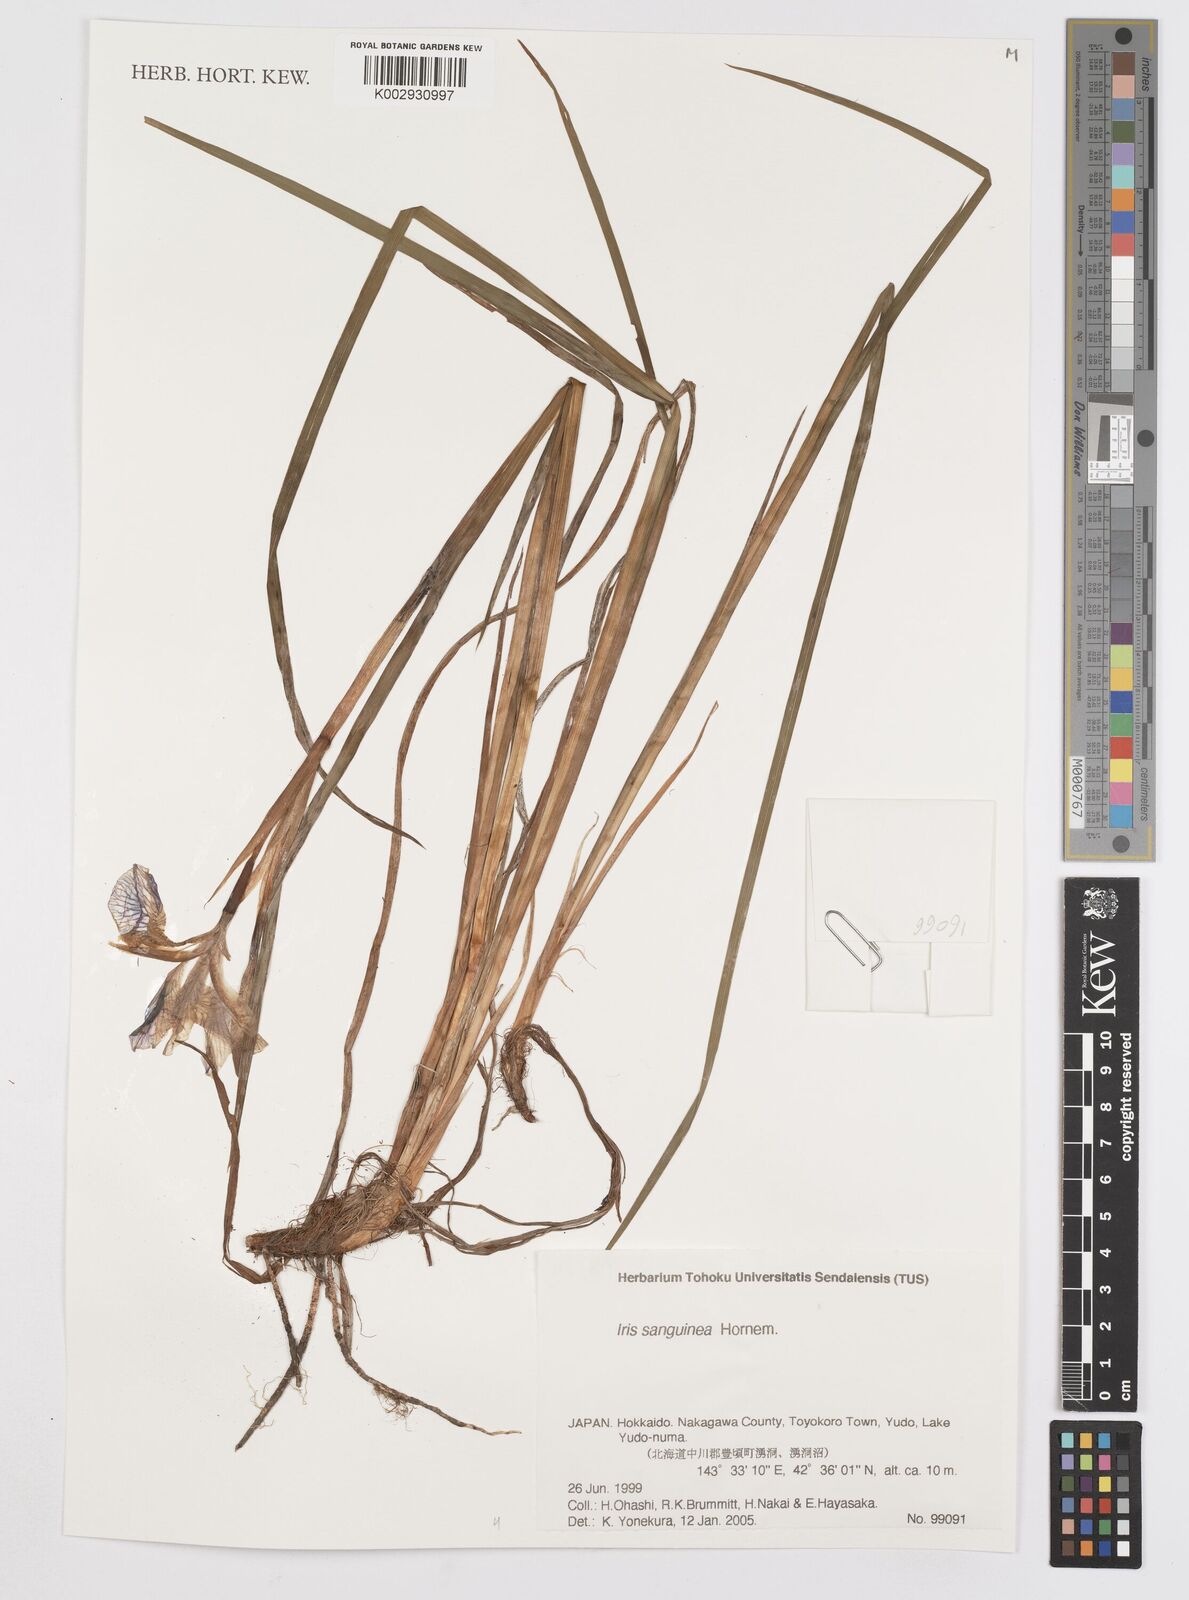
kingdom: Plantae
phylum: Tracheophyta
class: Liliopsida
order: Asparagales
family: Iridaceae
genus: Iris
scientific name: Iris sanguinea
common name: Blood iris
